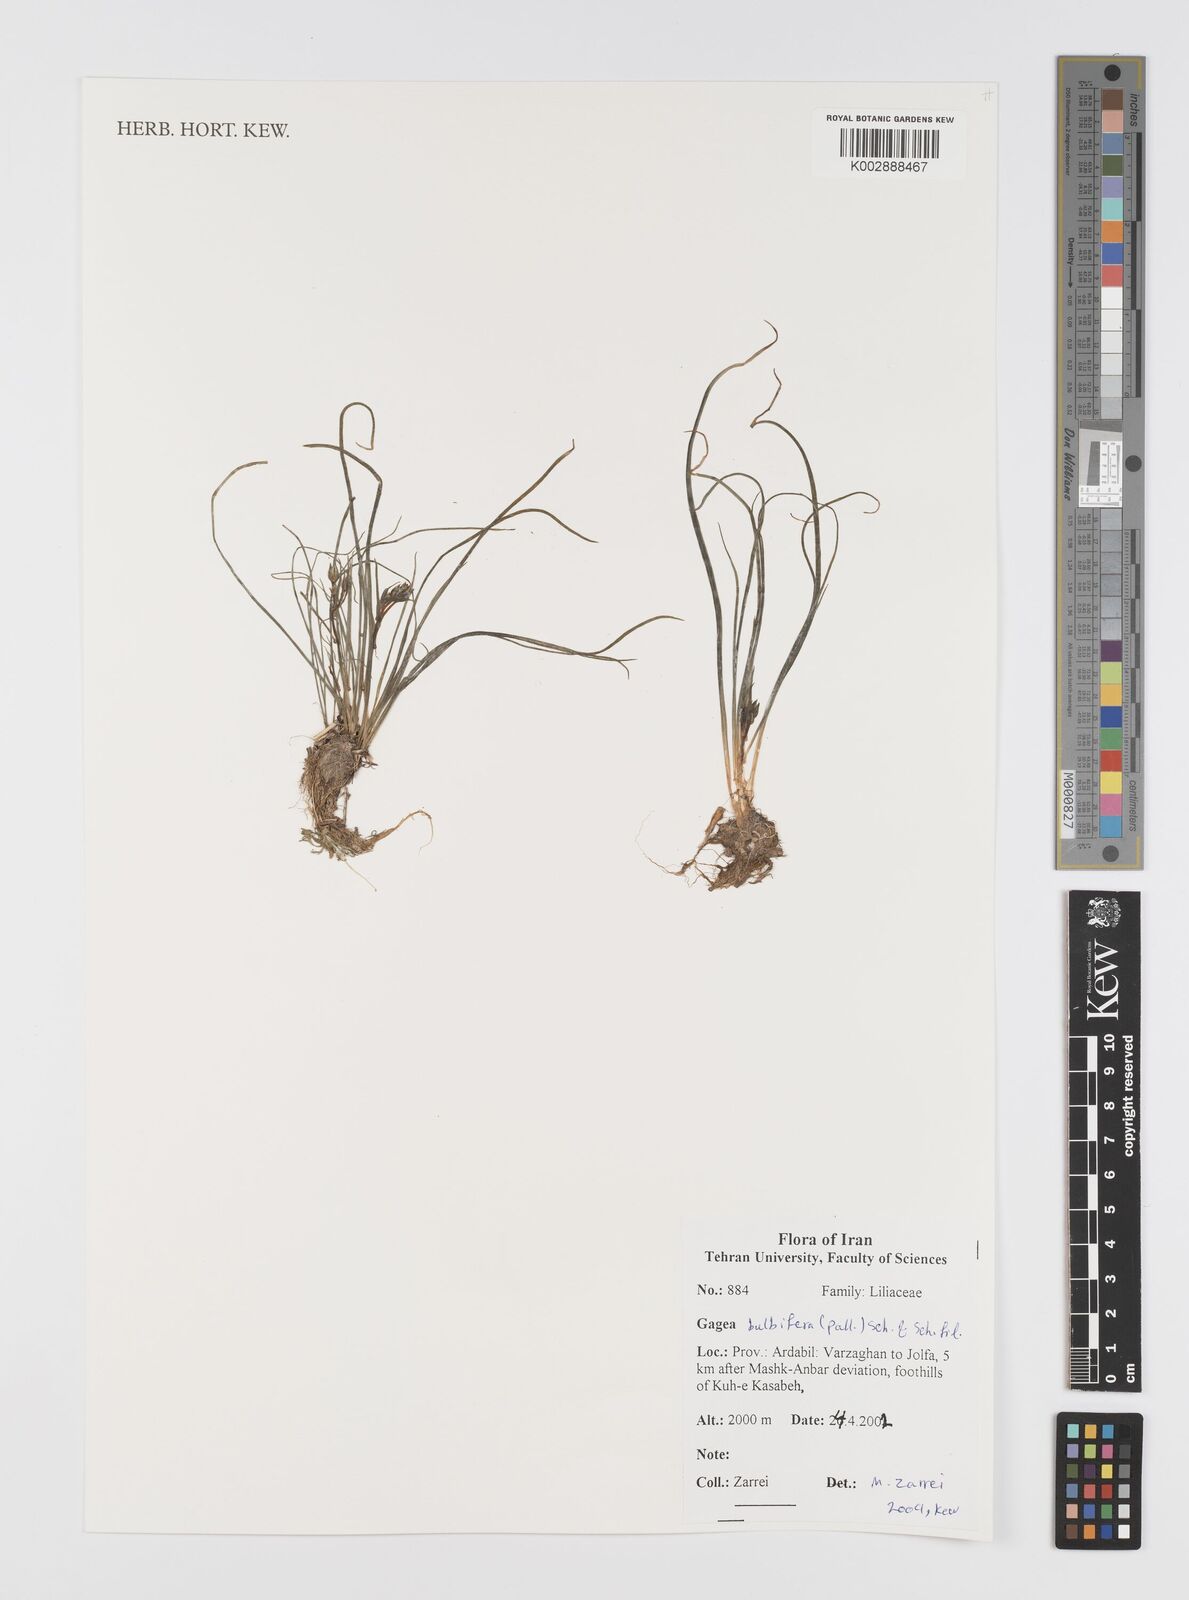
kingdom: Plantae
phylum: Tracheophyta
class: Liliopsida
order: Liliales
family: Liliaceae
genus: Gagea
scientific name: Gagea bulbifera
